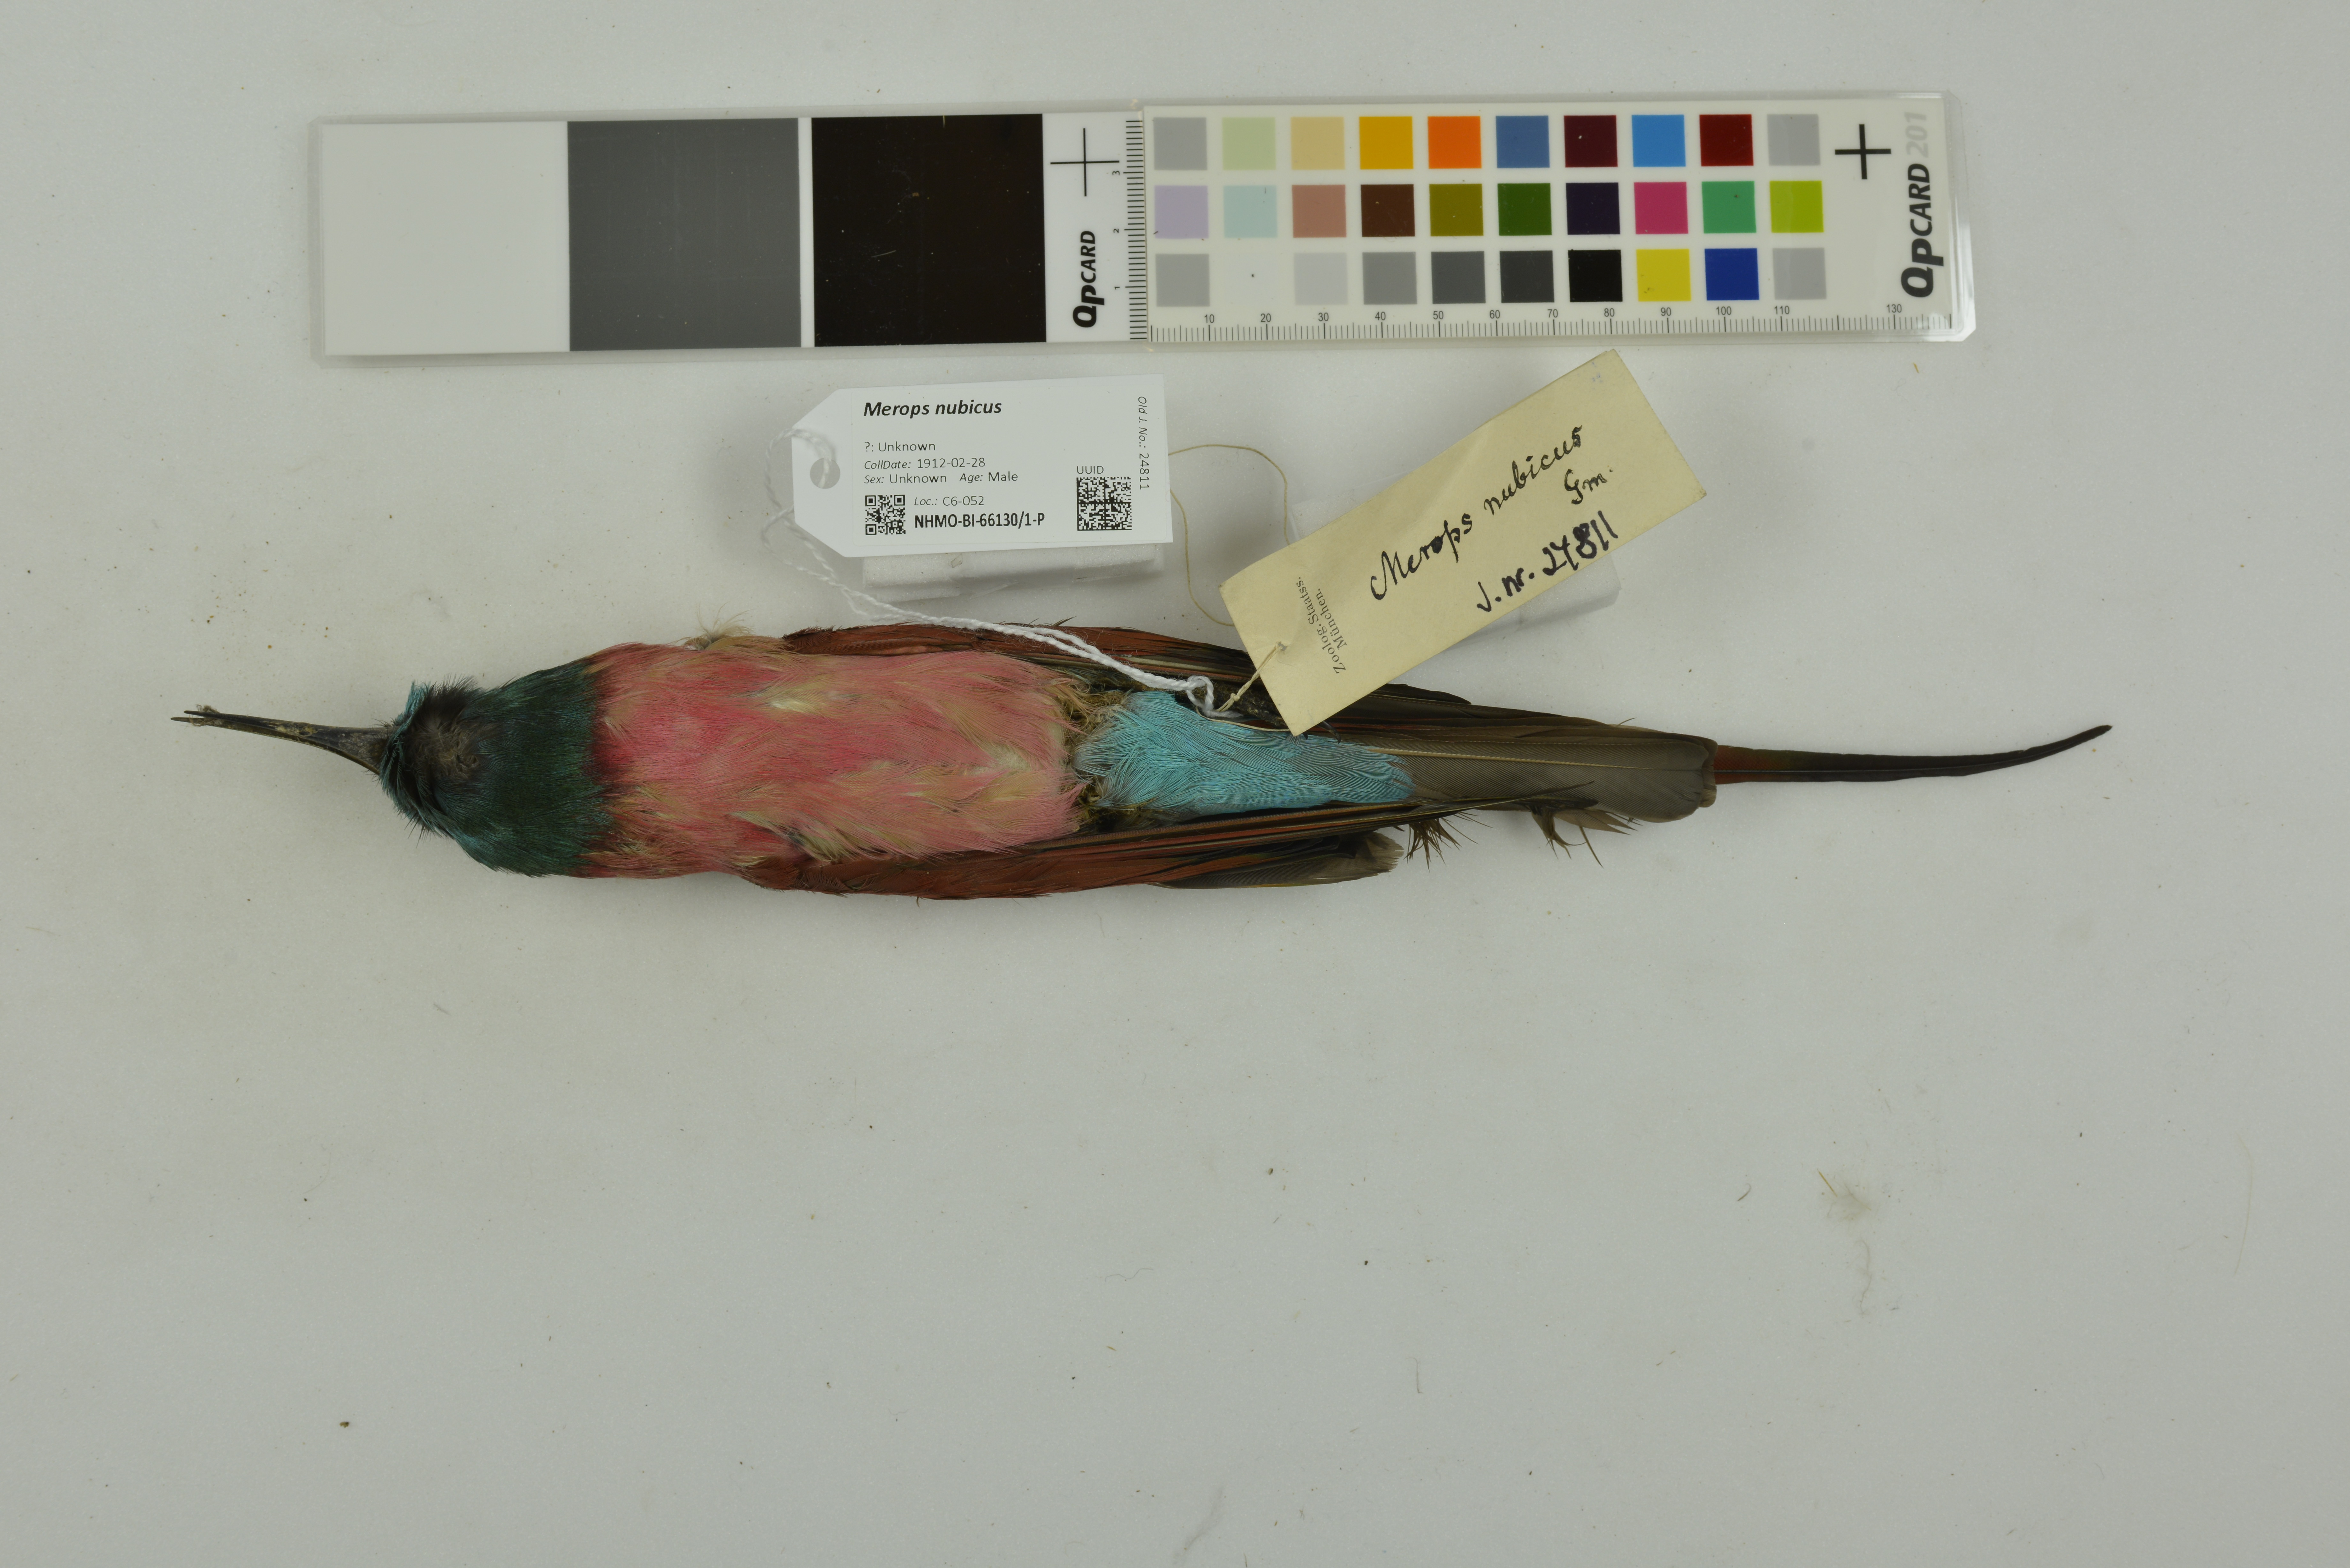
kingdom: Animalia
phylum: Chordata
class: Aves
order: Coraciiformes
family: Meropidae
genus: Merops
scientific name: Merops nubicus
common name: Northern carmine bee-eater
